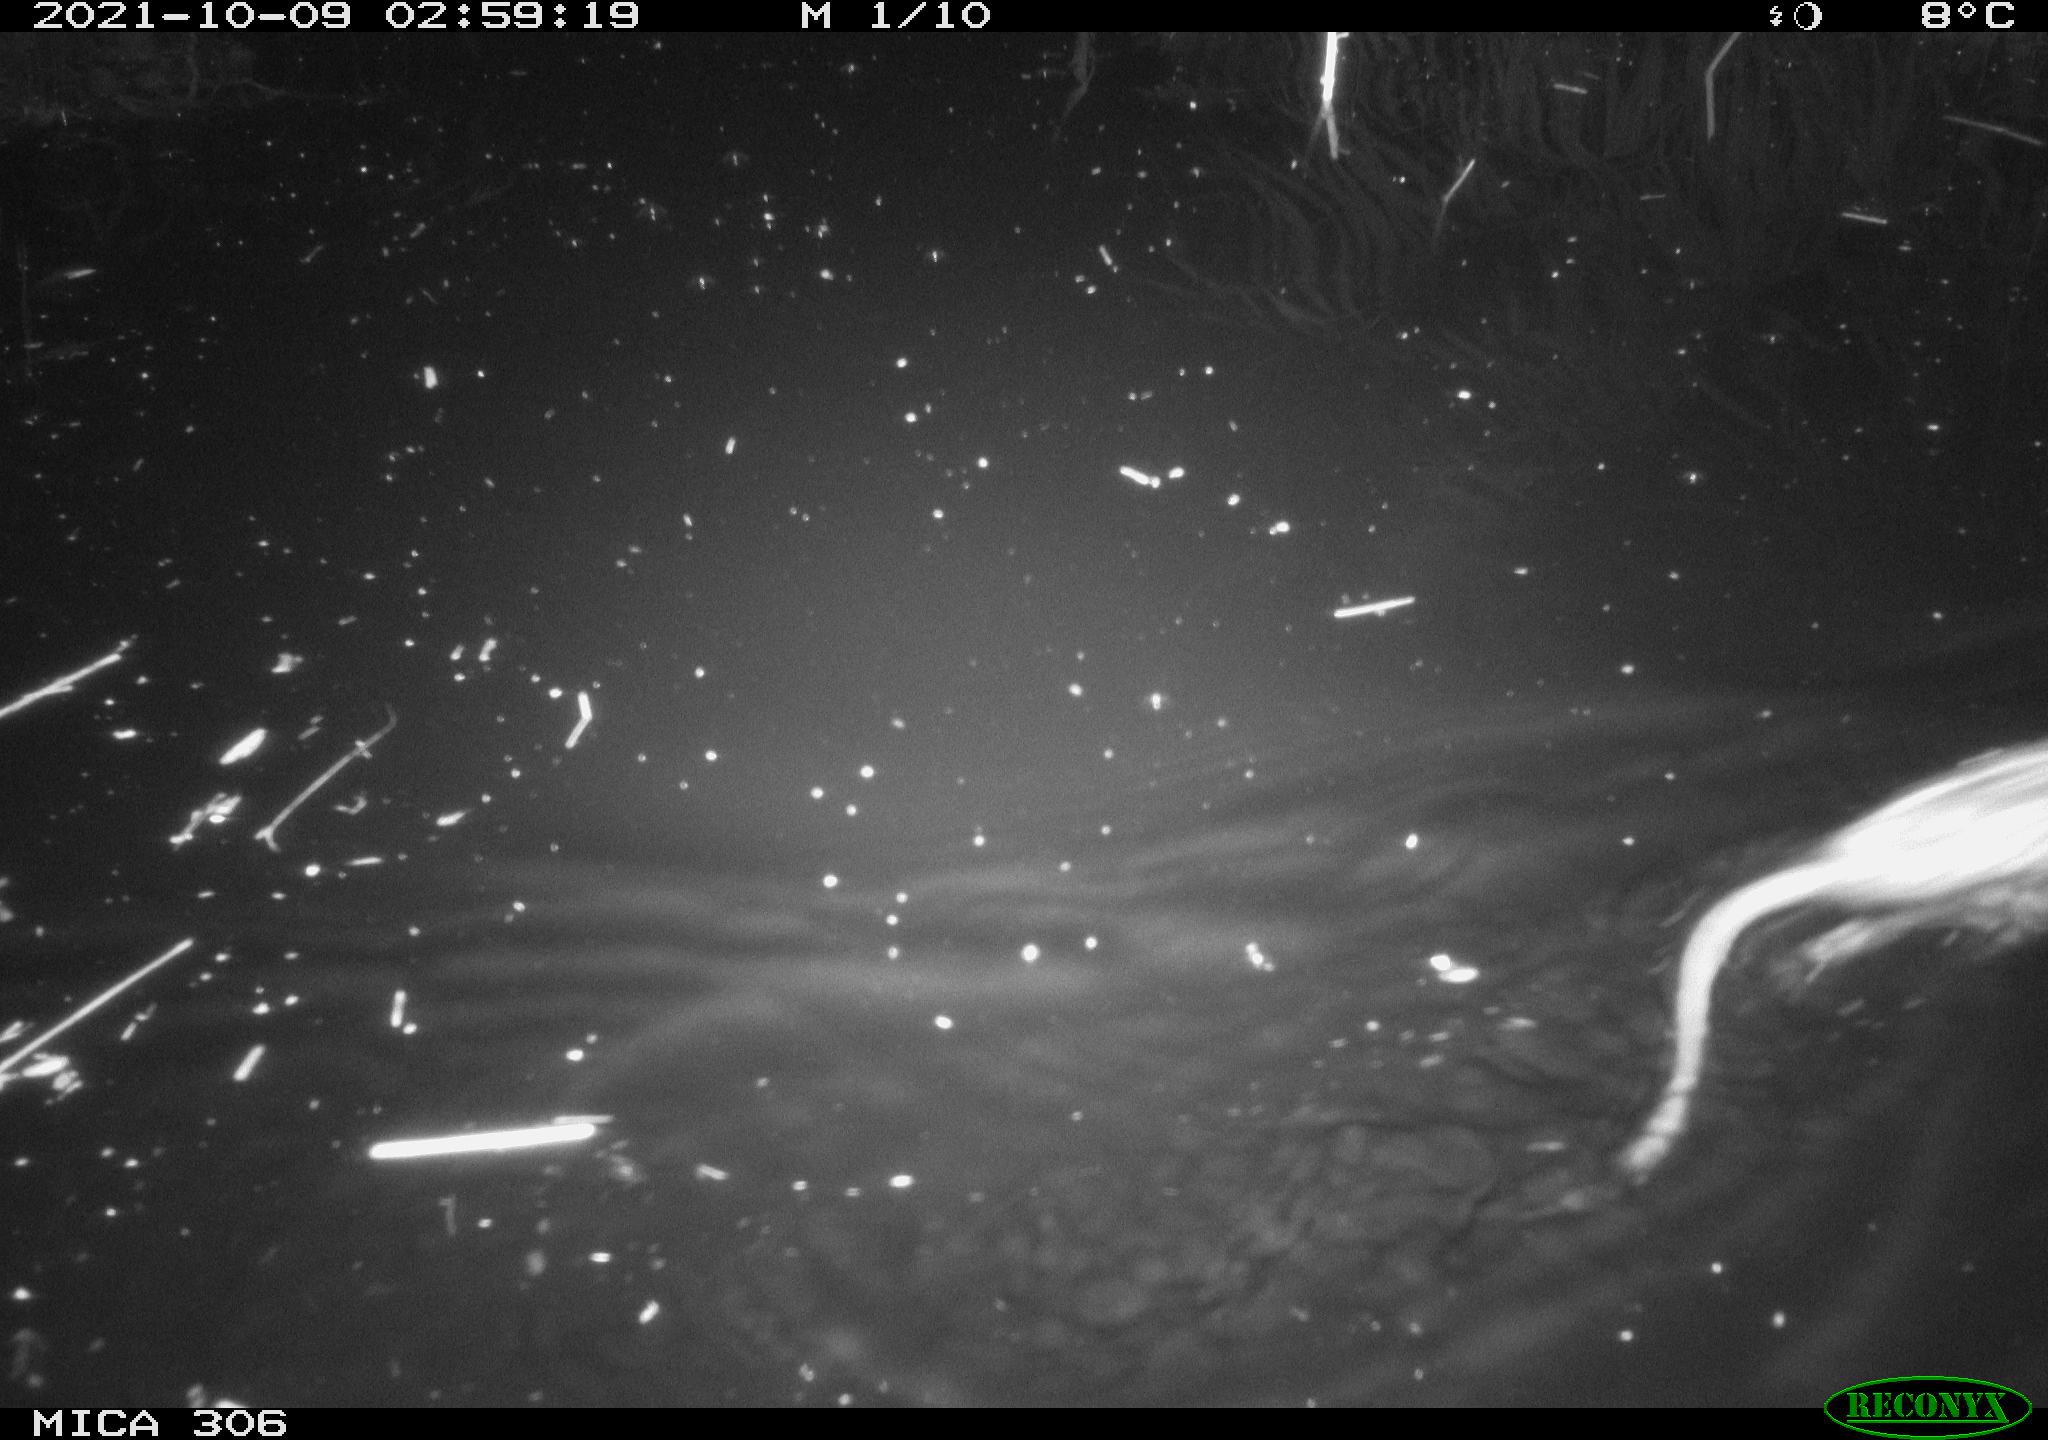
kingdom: Animalia
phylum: Chordata
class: Mammalia
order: Rodentia
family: Cricetidae
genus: Ondatra
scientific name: Ondatra zibethicus
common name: Muskrat
